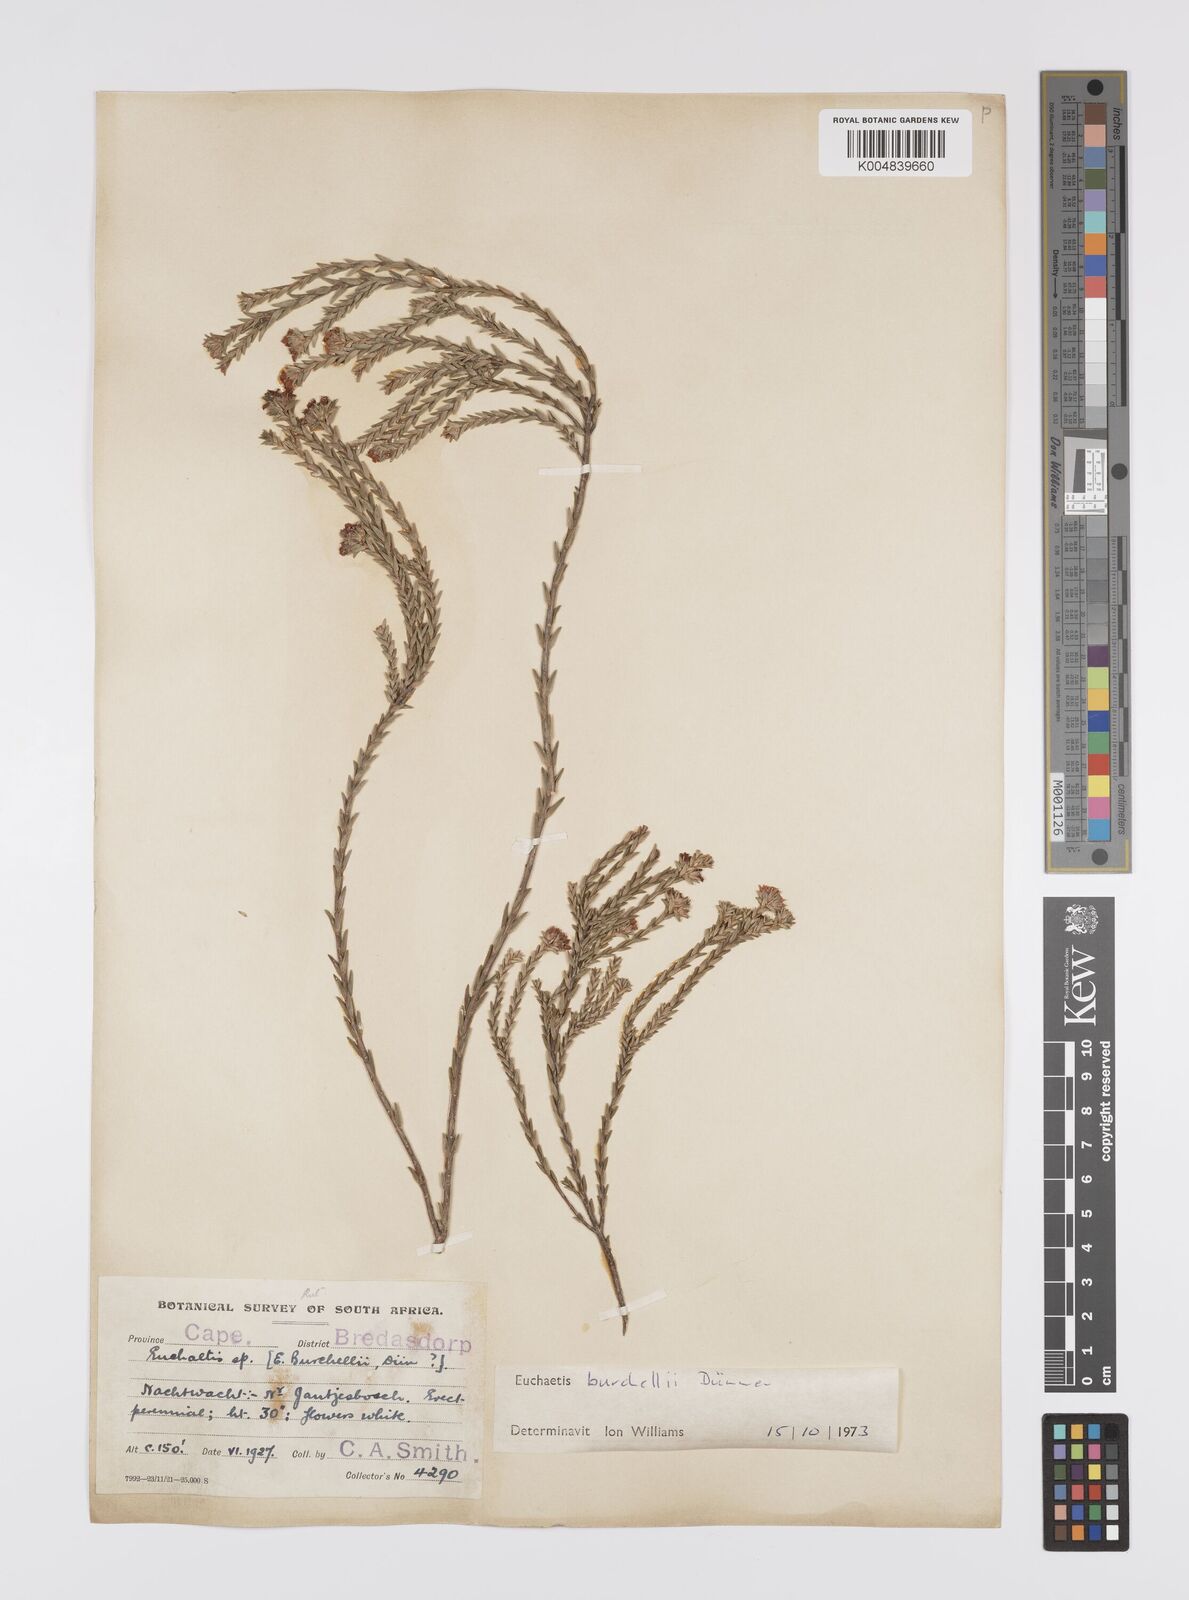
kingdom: Plantae
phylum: Tracheophyta
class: Magnoliopsida
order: Sapindales
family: Rutaceae
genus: Euchaetis
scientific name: Euchaetis burchellii
